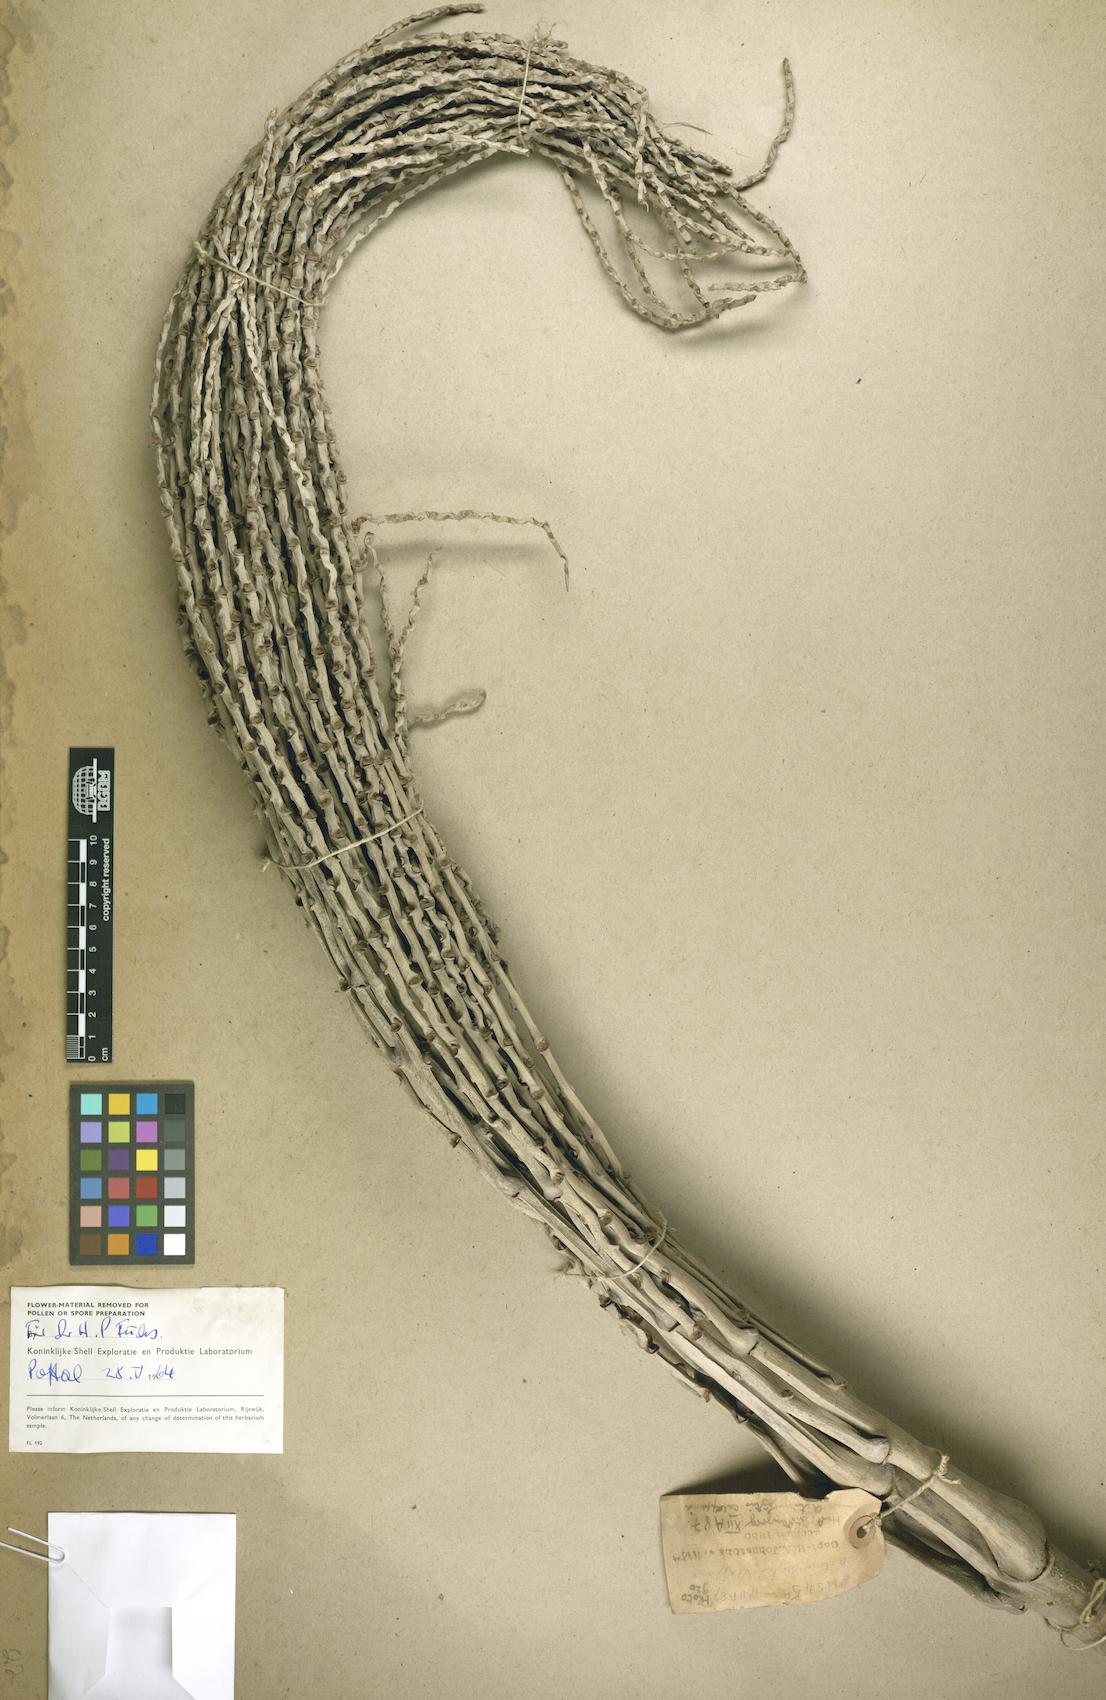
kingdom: Plantae
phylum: Tracheophyta
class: Liliopsida
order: Arecales
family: Arecaceae
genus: Actinorhytis
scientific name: Actinorhytis calapparia
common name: Calappa palm
